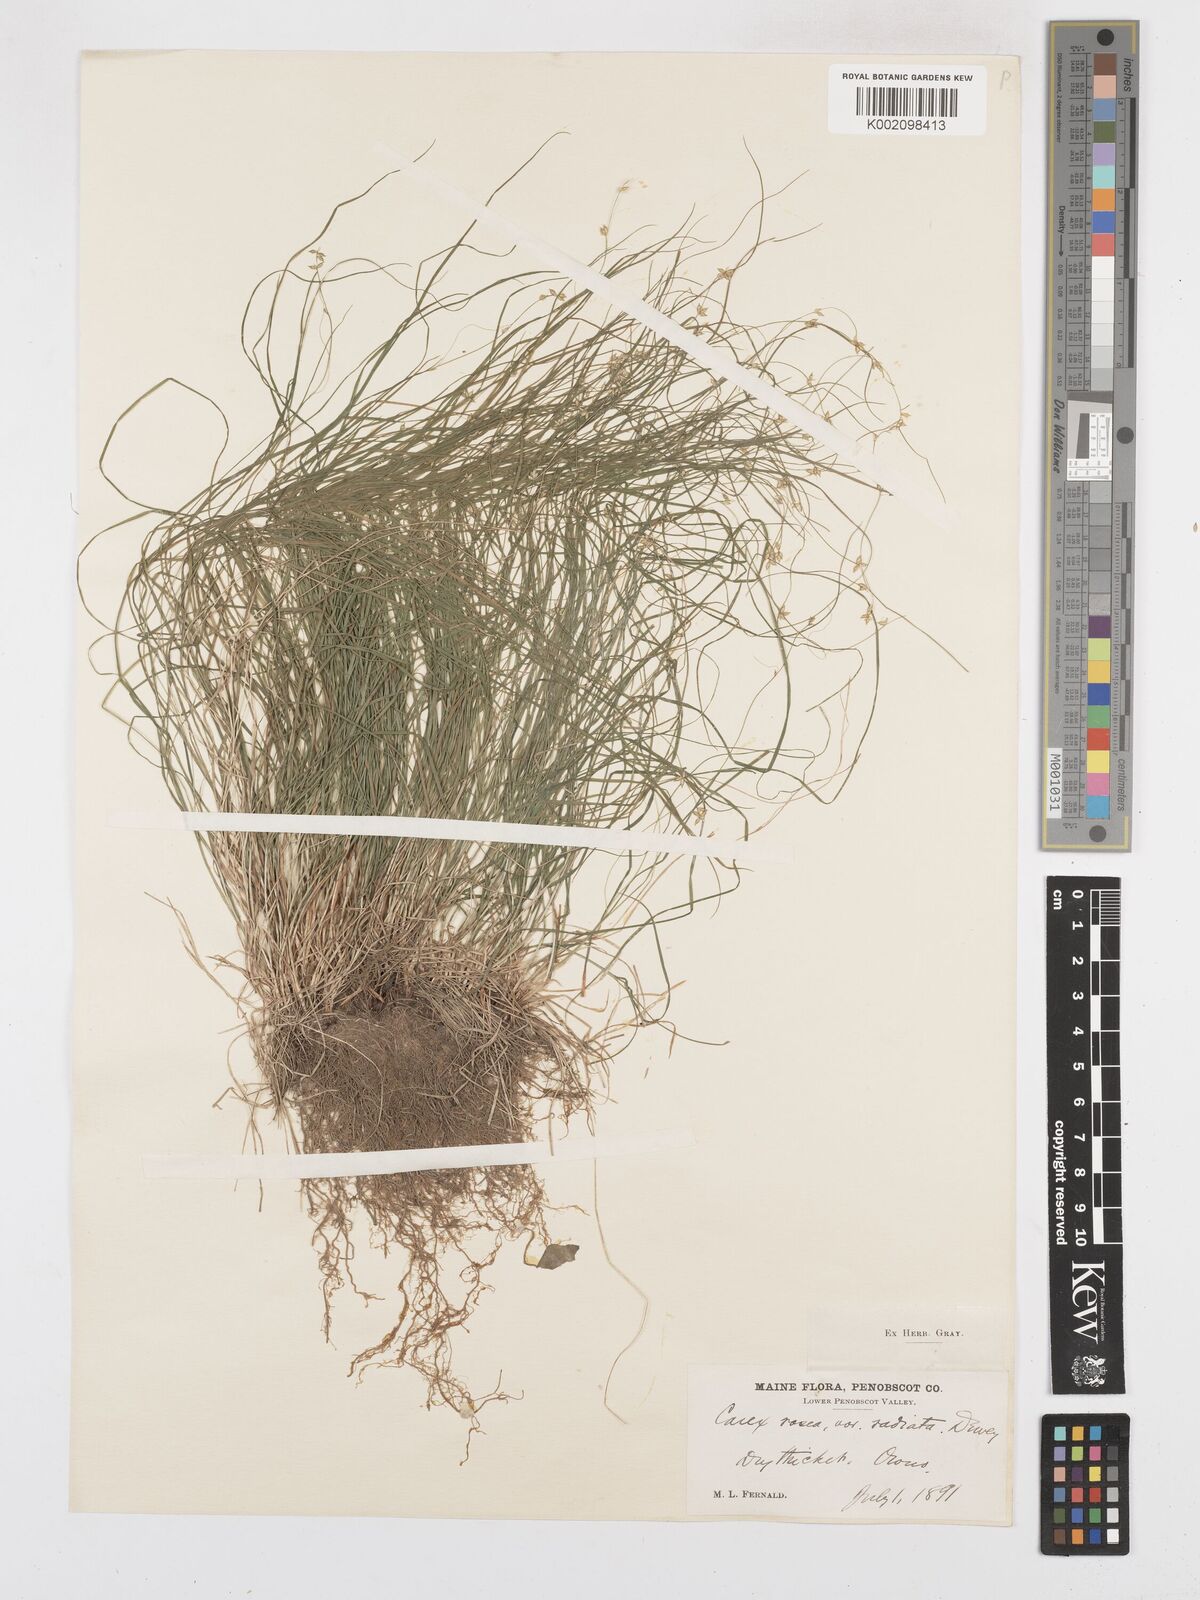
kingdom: Plantae
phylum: Tracheophyta
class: Liliopsida
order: Poales
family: Cyperaceae
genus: Carex
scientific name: Carex
